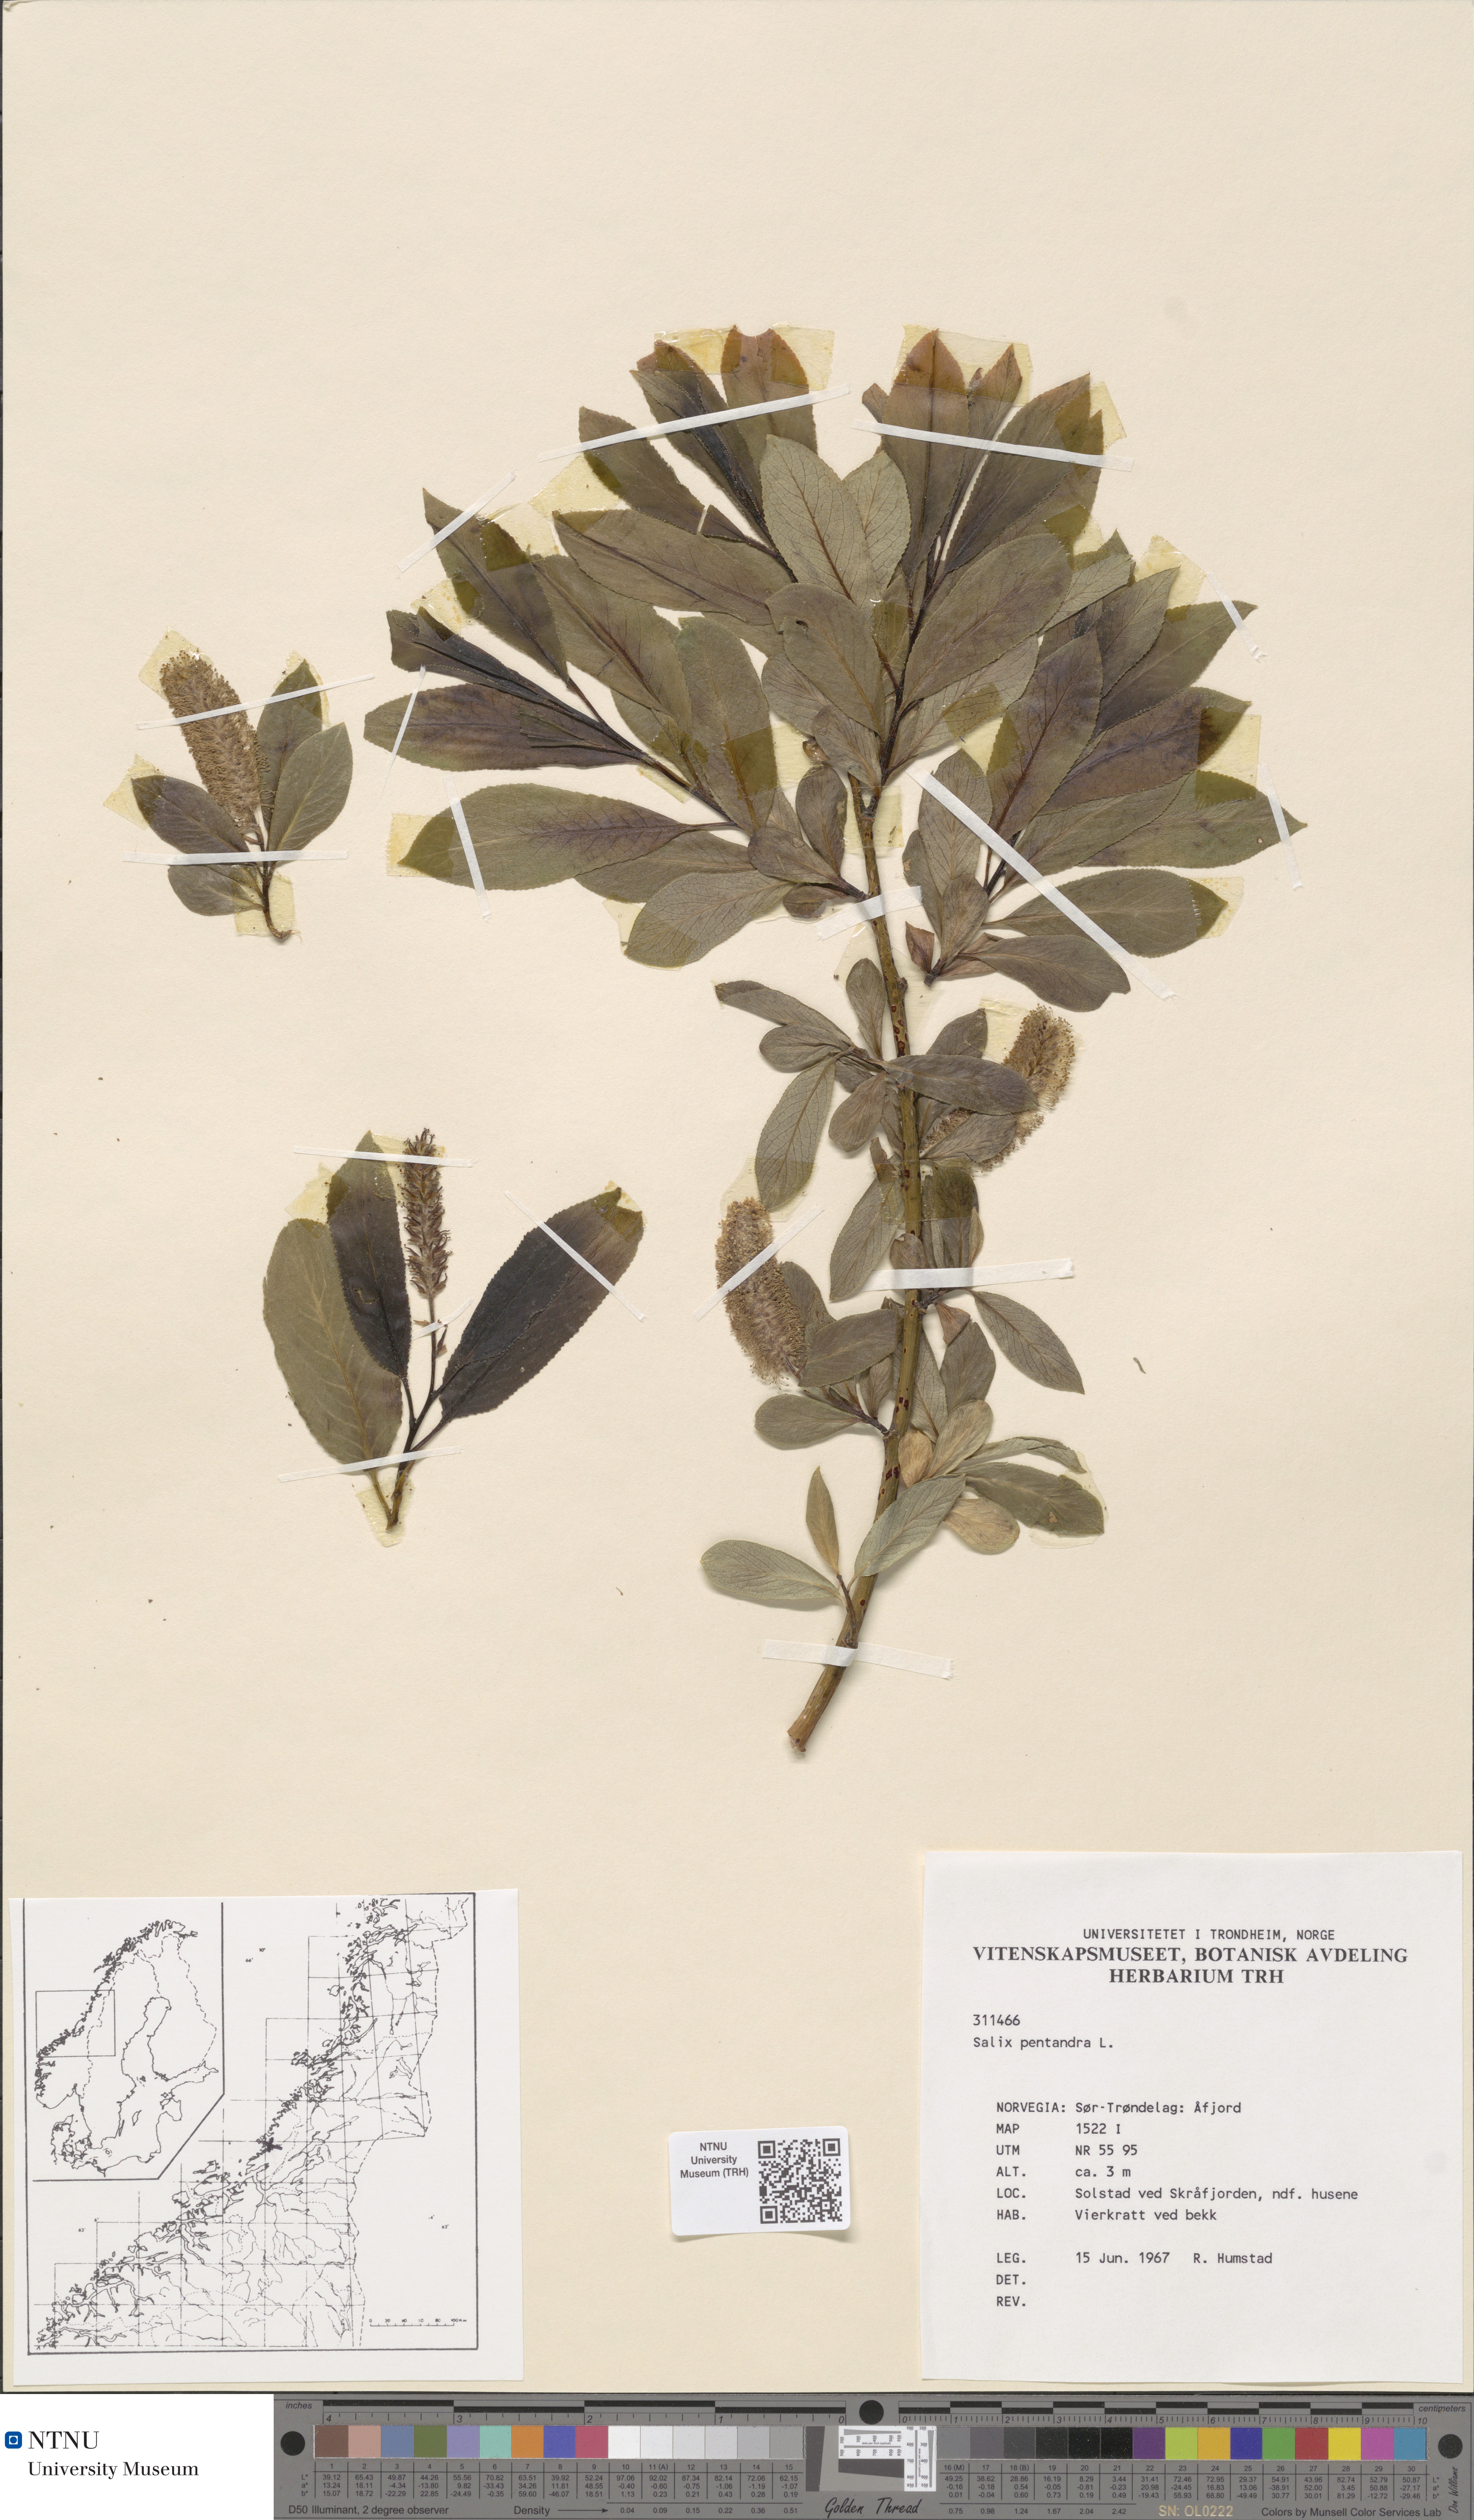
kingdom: Plantae
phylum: Tracheophyta
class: Magnoliopsida
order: Malpighiales
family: Salicaceae
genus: Salix
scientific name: Salix pentandra
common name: Bay willow
